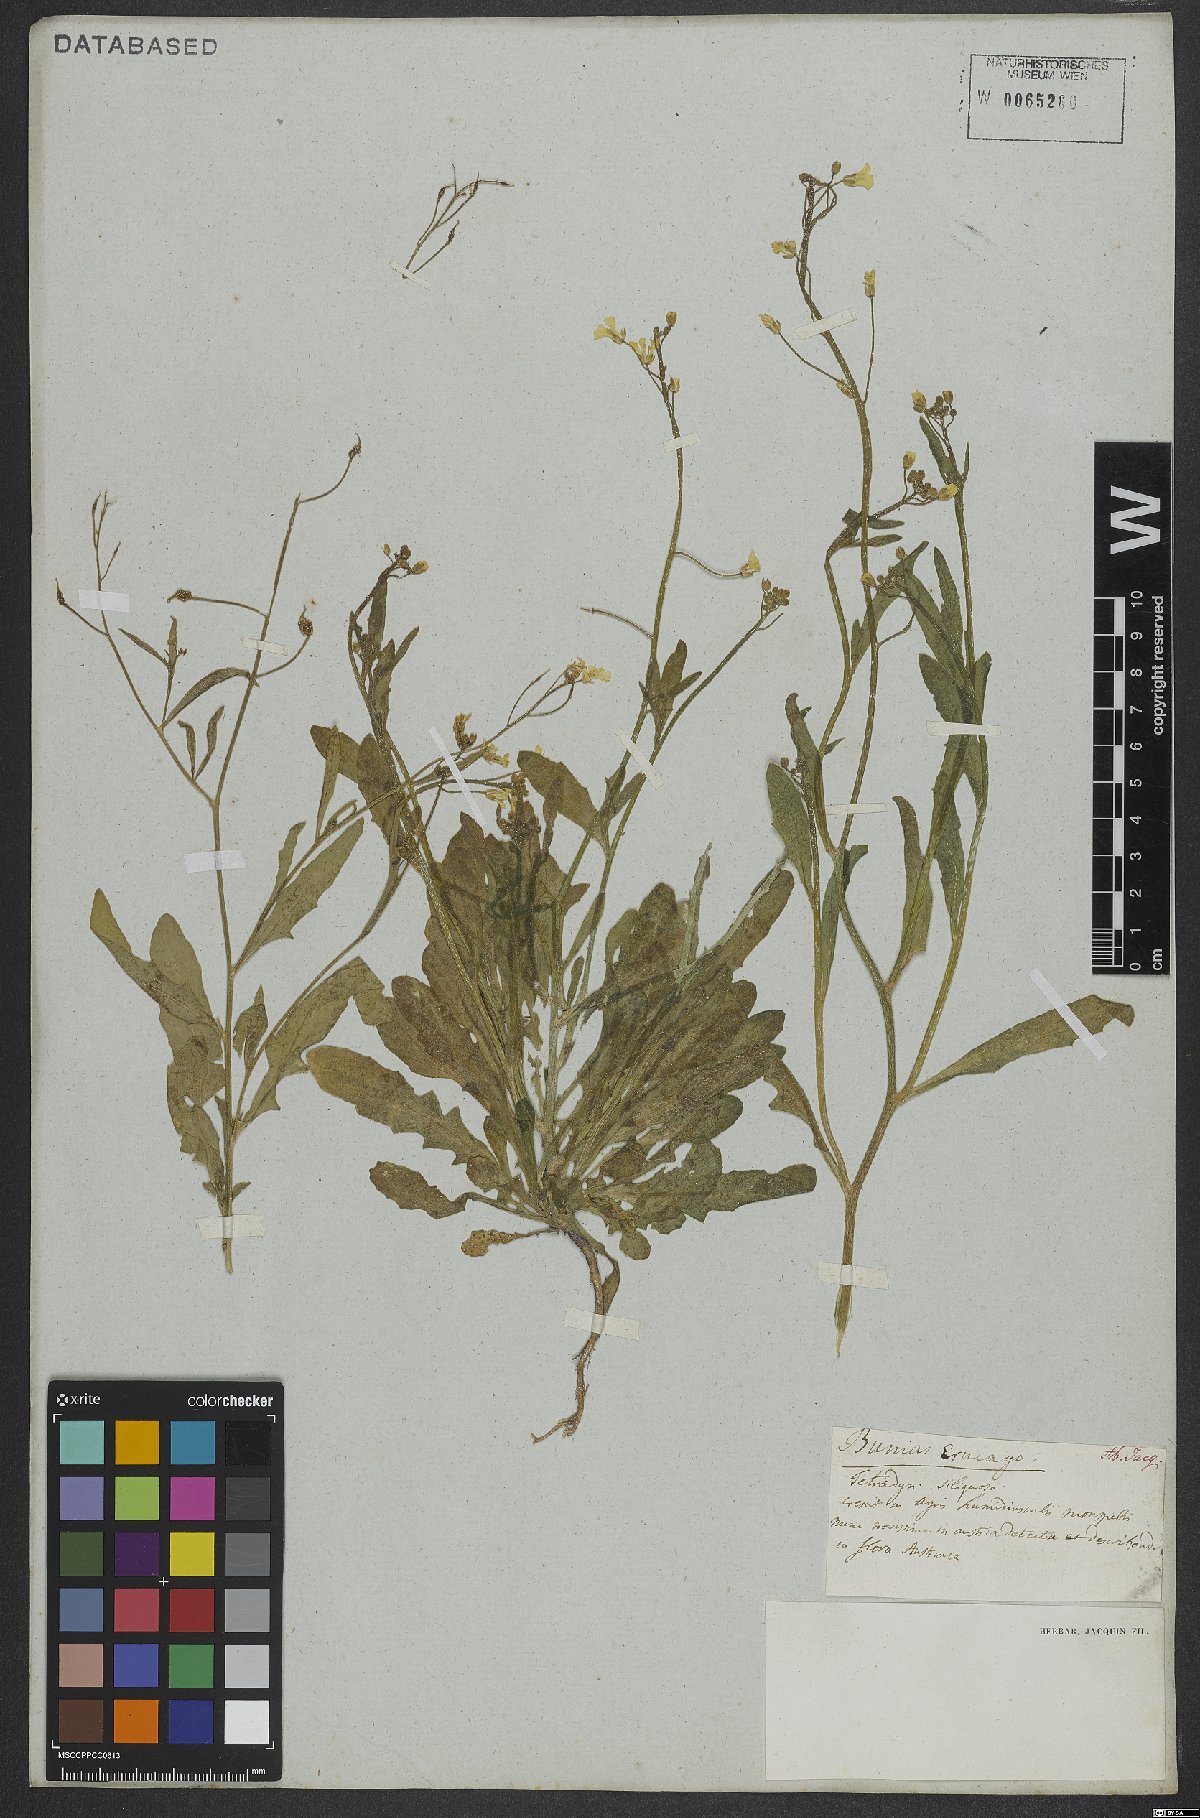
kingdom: Plantae
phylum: Tracheophyta
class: Magnoliopsida
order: Brassicales
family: Brassicaceae
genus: Bunias
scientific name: Bunias erucago
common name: Southern warty-cabbage
